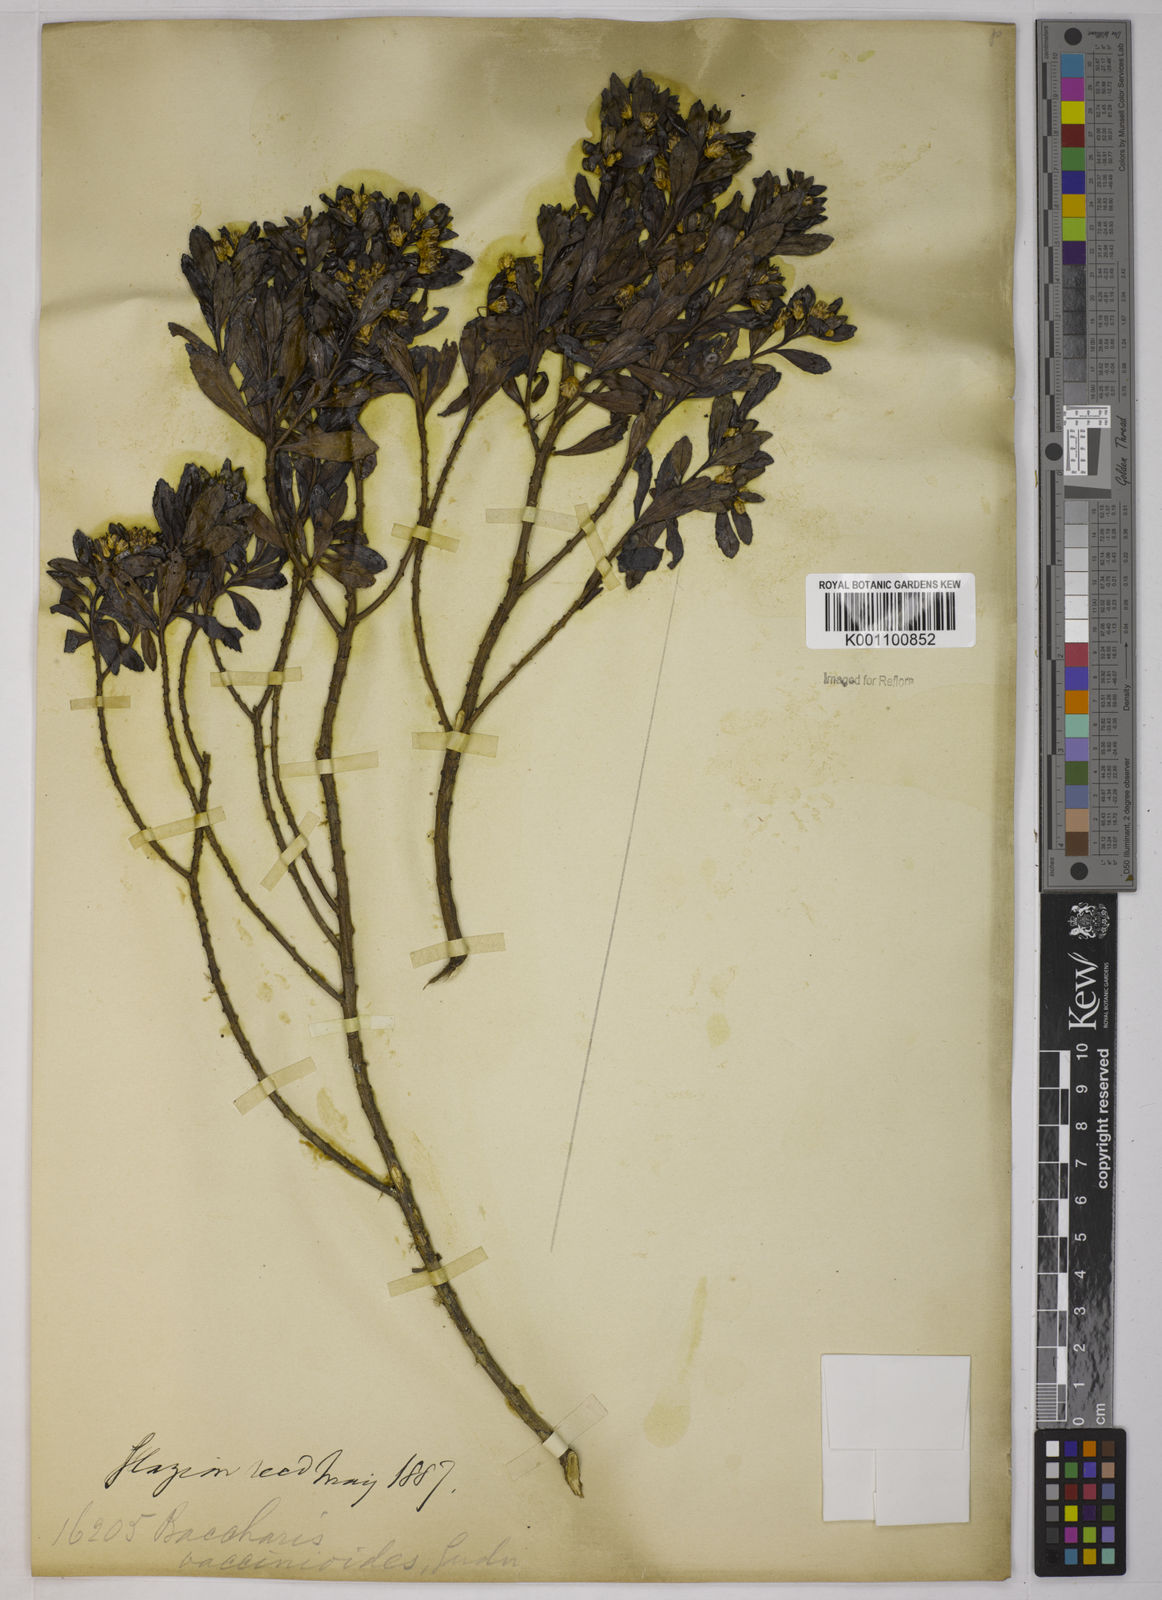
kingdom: Plantae
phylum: Tracheophyta
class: Magnoliopsida
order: Asterales
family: Asteraceae
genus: Baccharis
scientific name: Baccharis pseudovaccinioides
